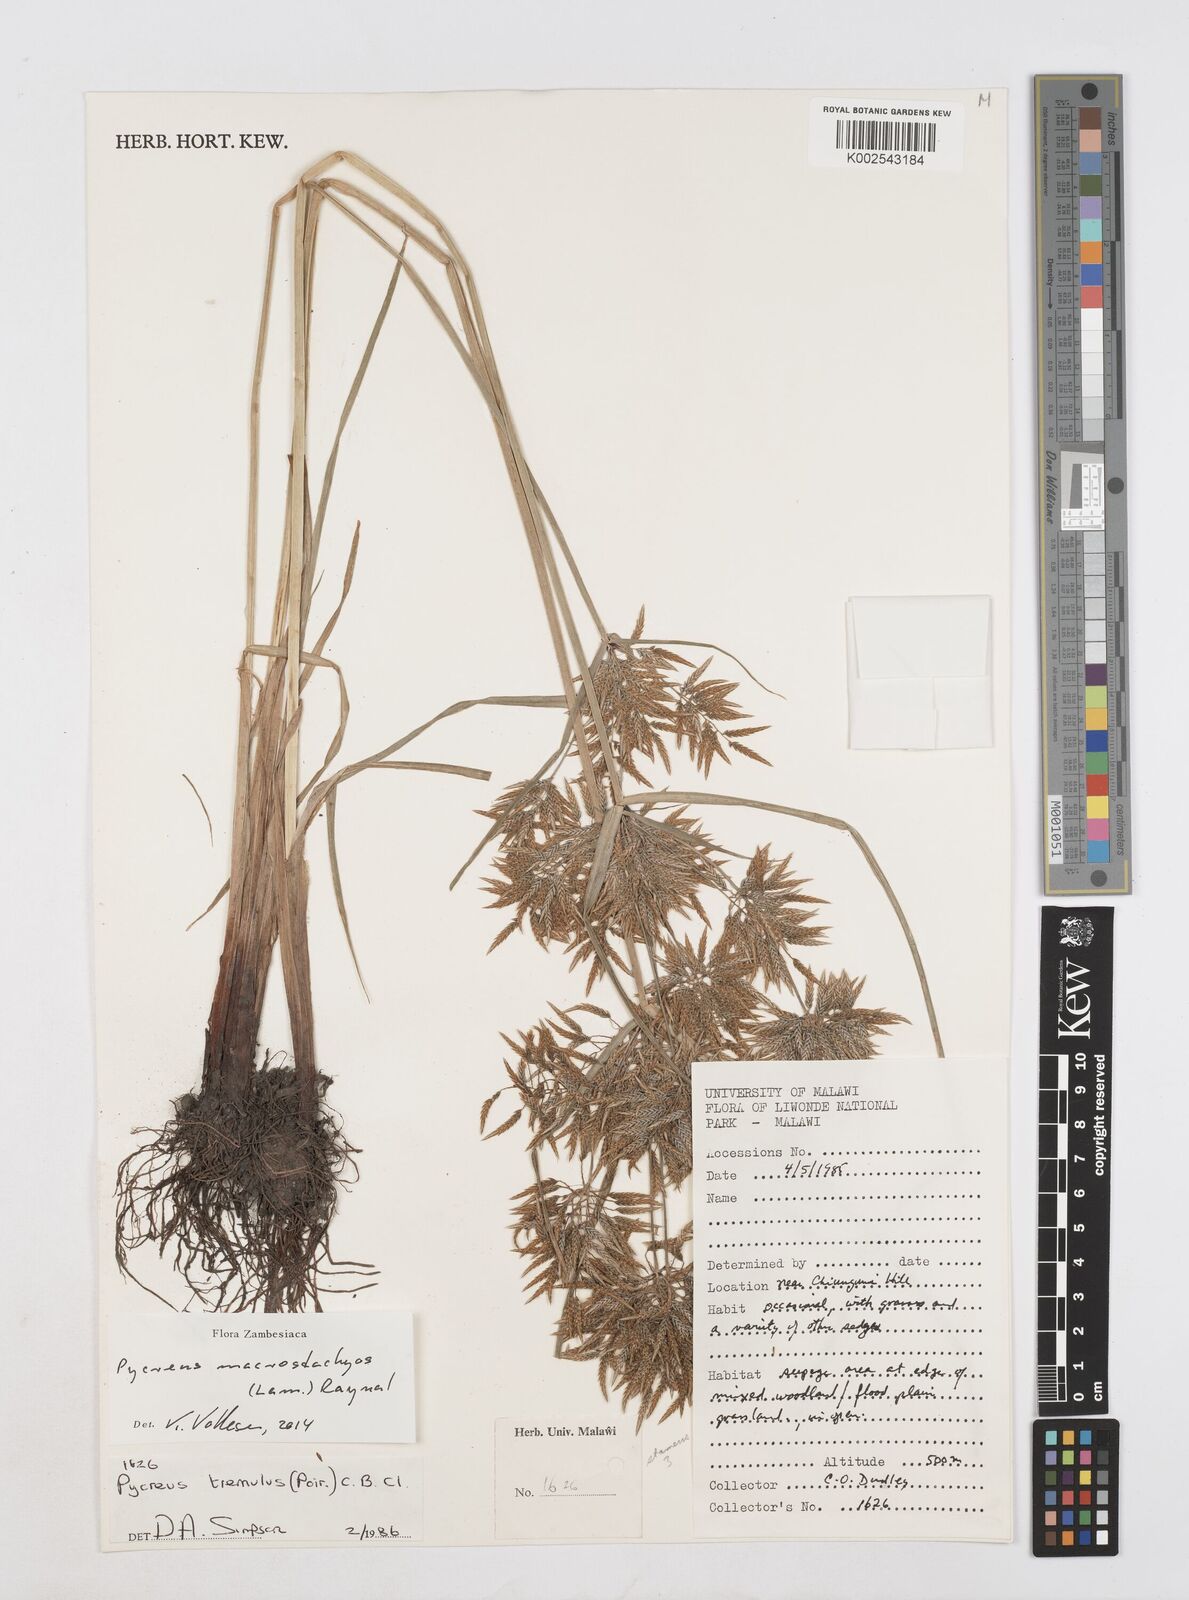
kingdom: Plantae
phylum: Tracheophyta
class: Liliopsida
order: Poales
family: Cyperaceae
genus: Cyperus
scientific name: Cyperus macrostachyos
